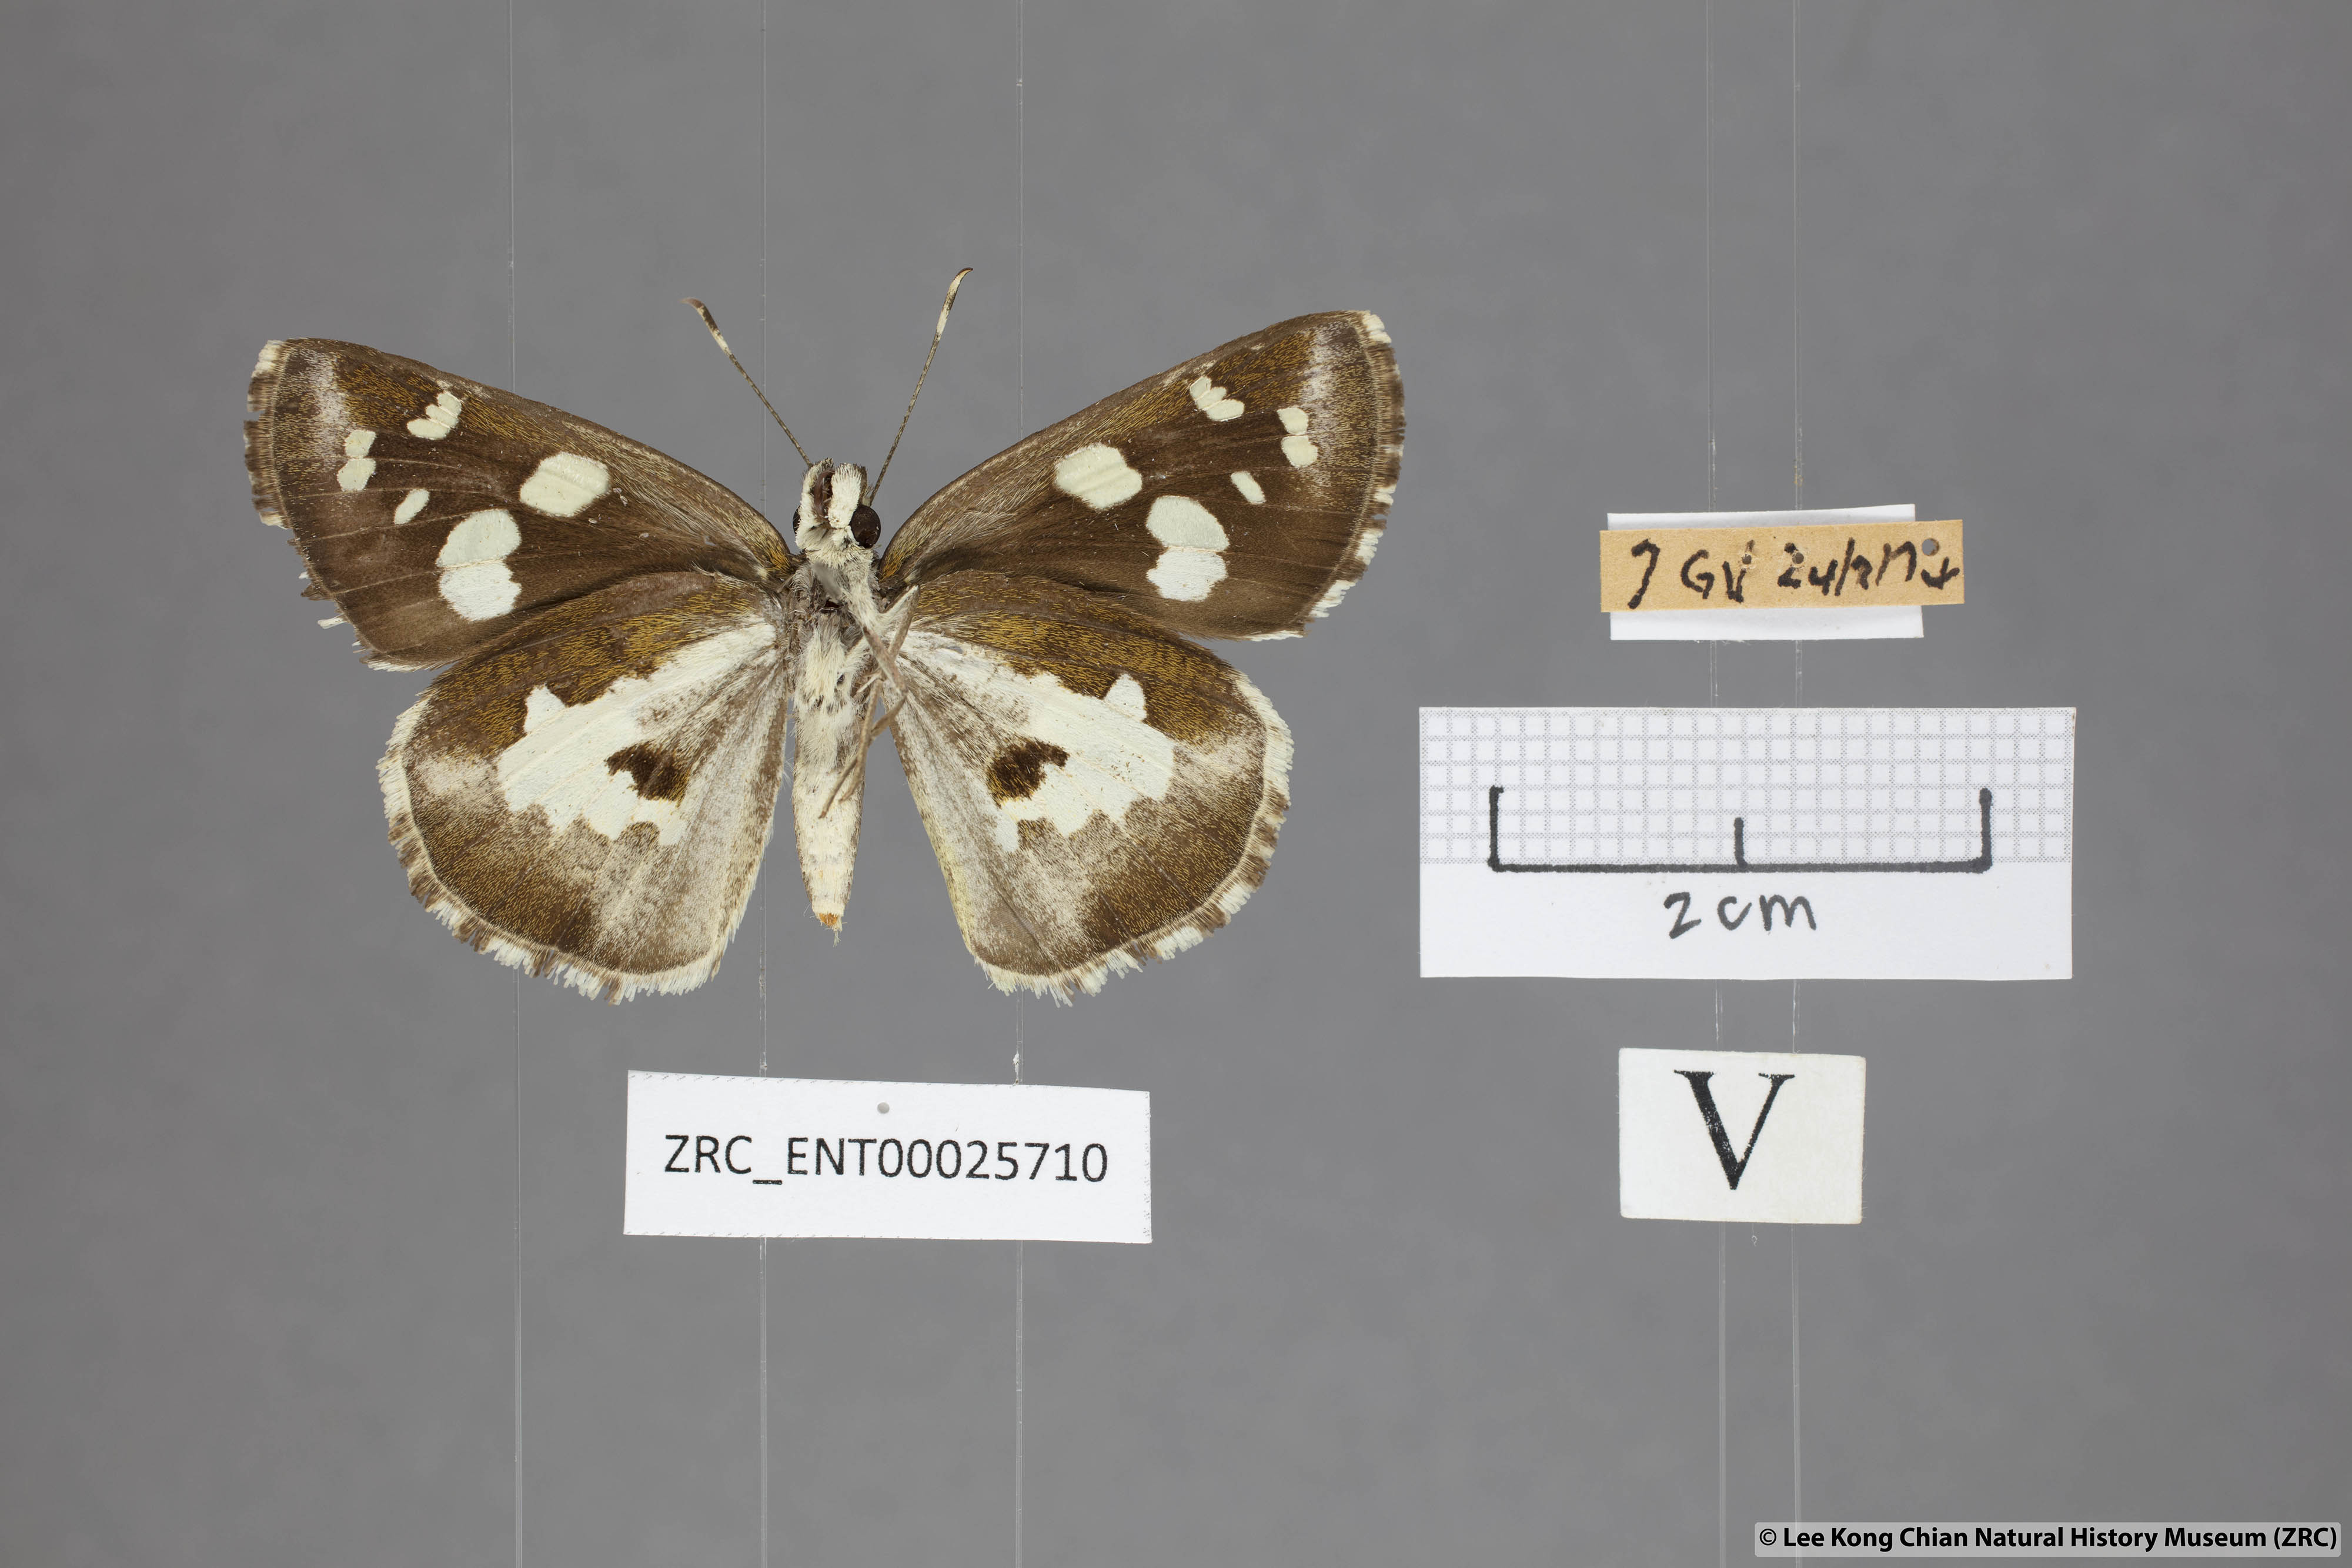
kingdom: Animalia
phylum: Arthropoda
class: Insecta
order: Lepidoptera
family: Hesperiidae
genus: Udaspes
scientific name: Udaspes folus
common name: Grass demon
